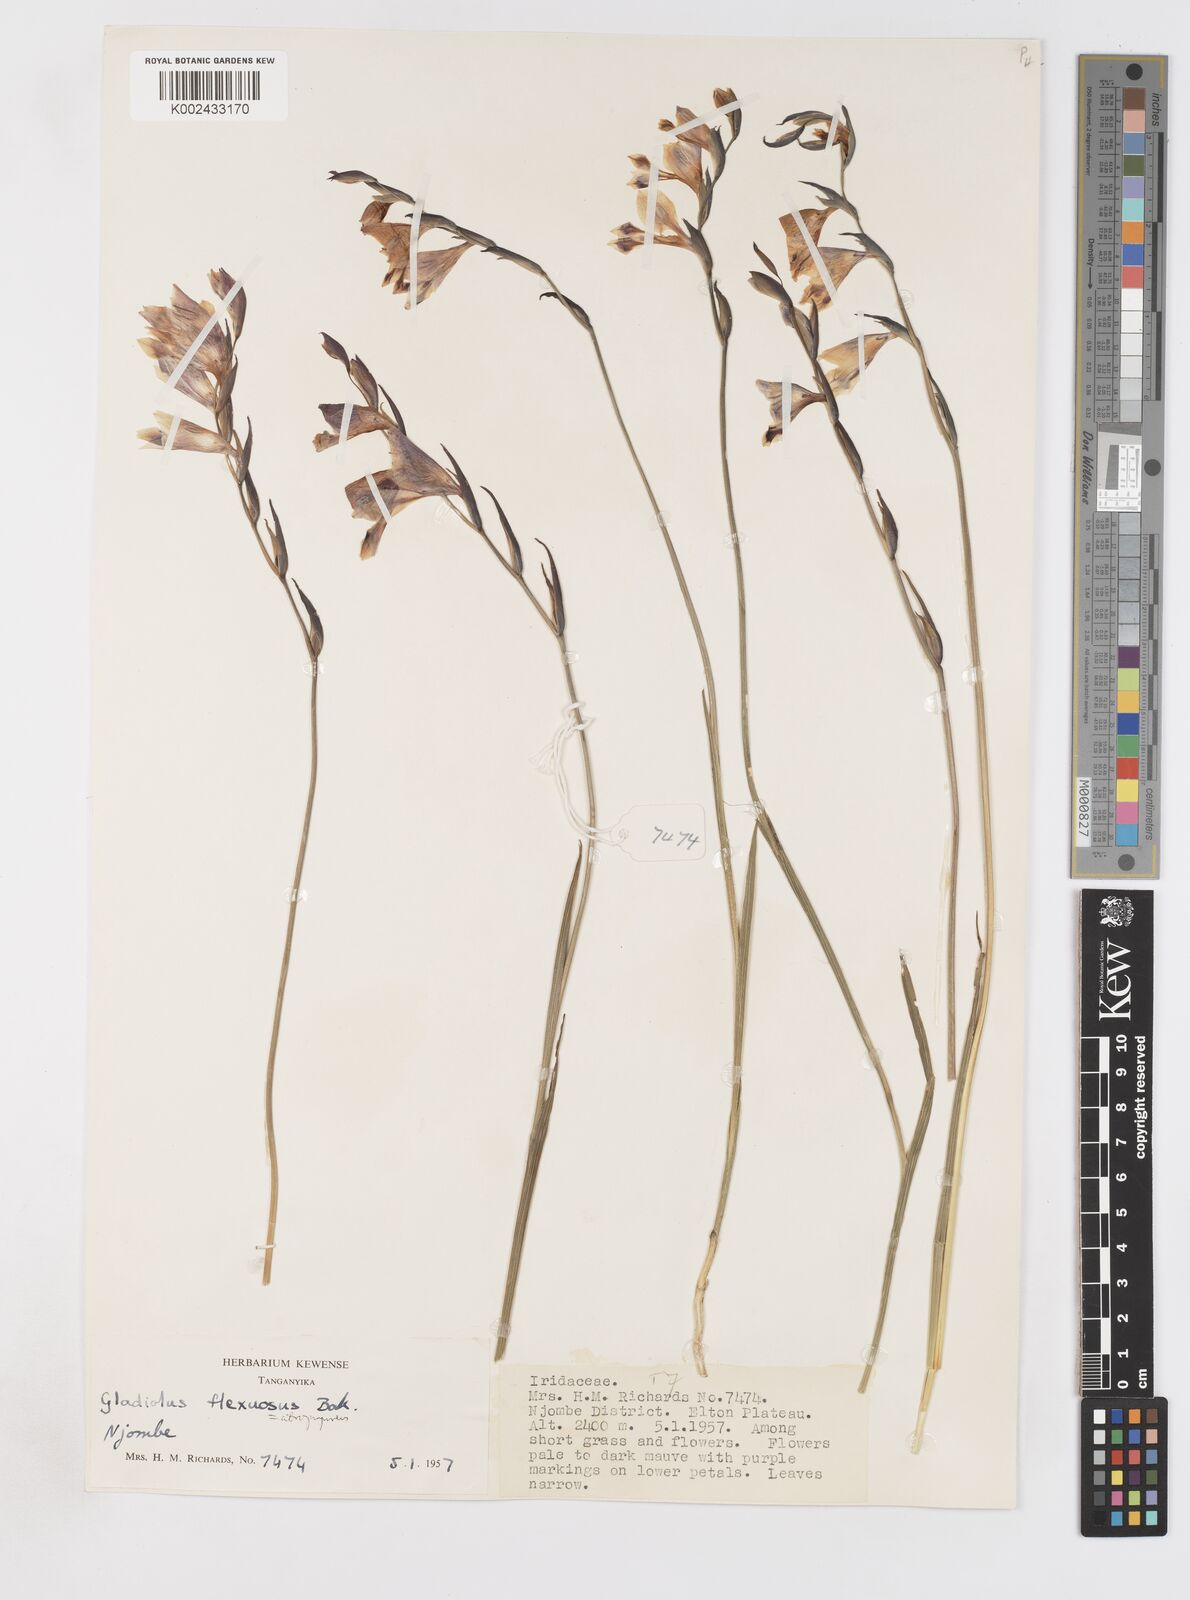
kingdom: Plantae
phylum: Tracheophyta
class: Liliopsida
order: Asparagales
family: Iridaceae
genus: Gladiolus
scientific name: Gladiolus atropurpureus
